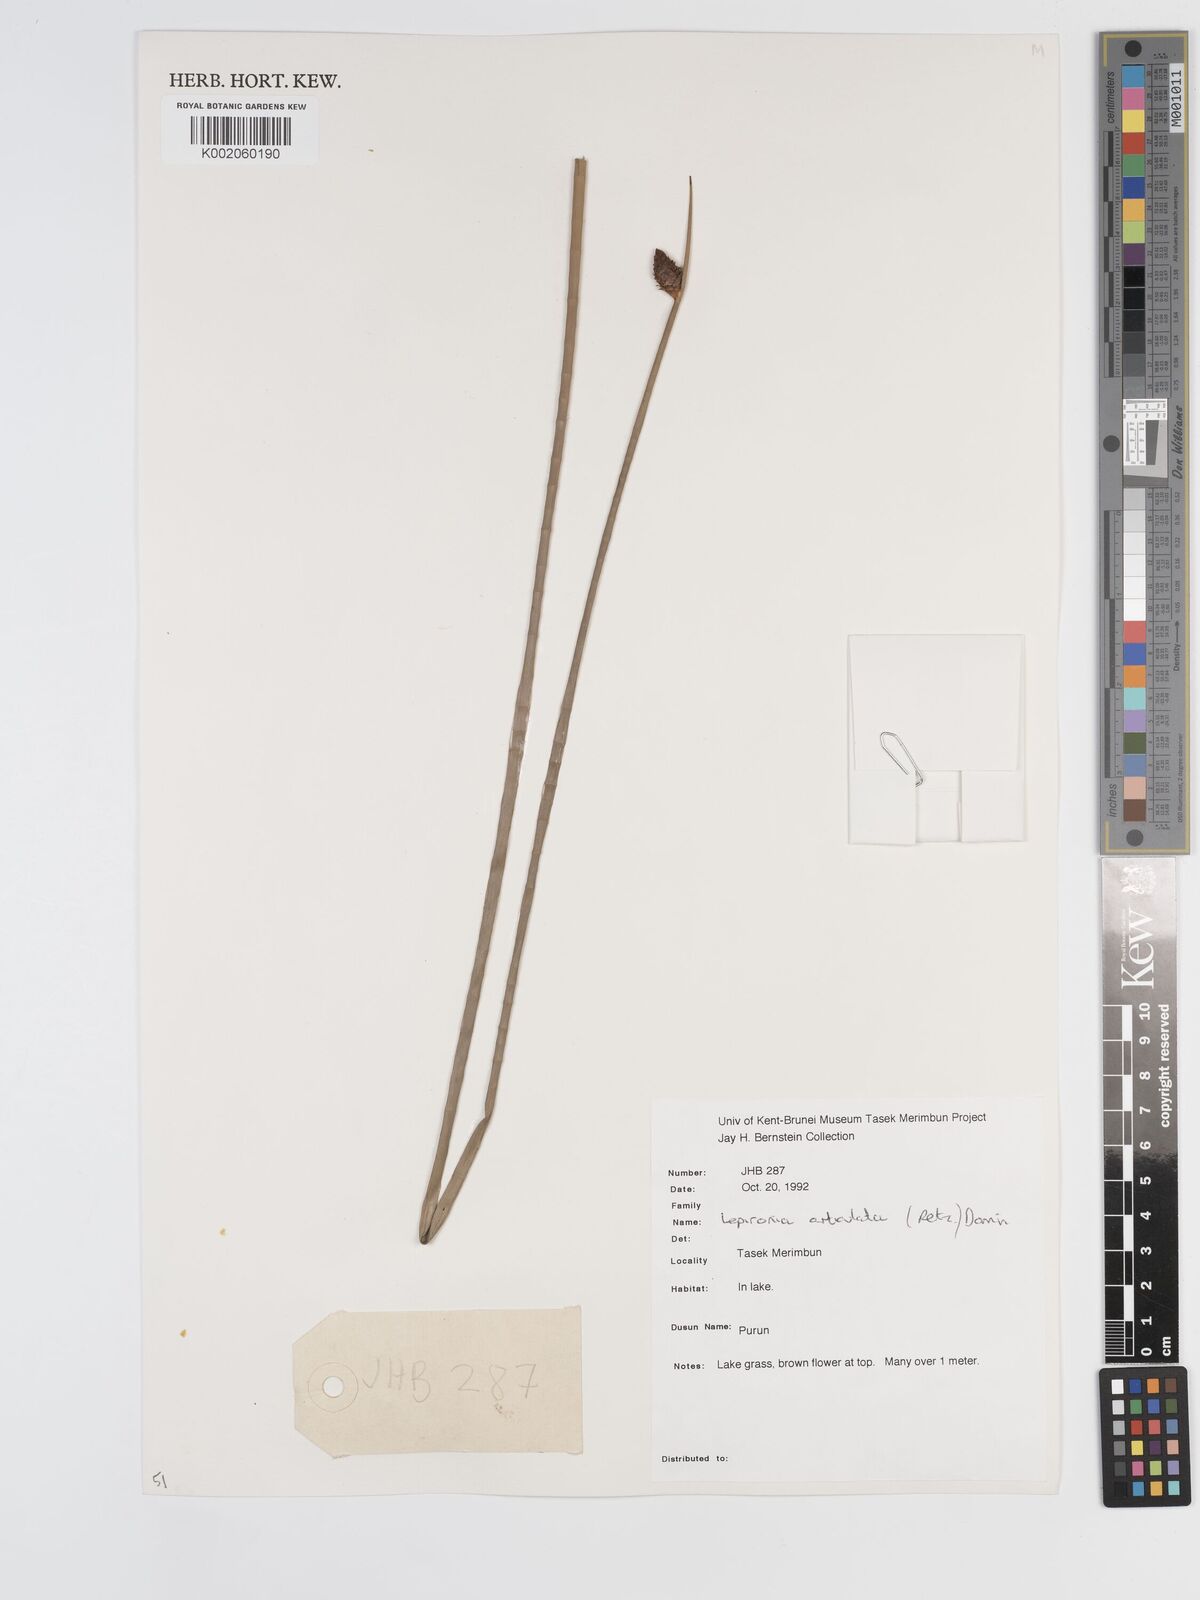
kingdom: Plantae
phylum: Tracheophyta
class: Liliopsida
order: Poales
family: Cyperaceae
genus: Lepironia
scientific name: Lepironia articulata
